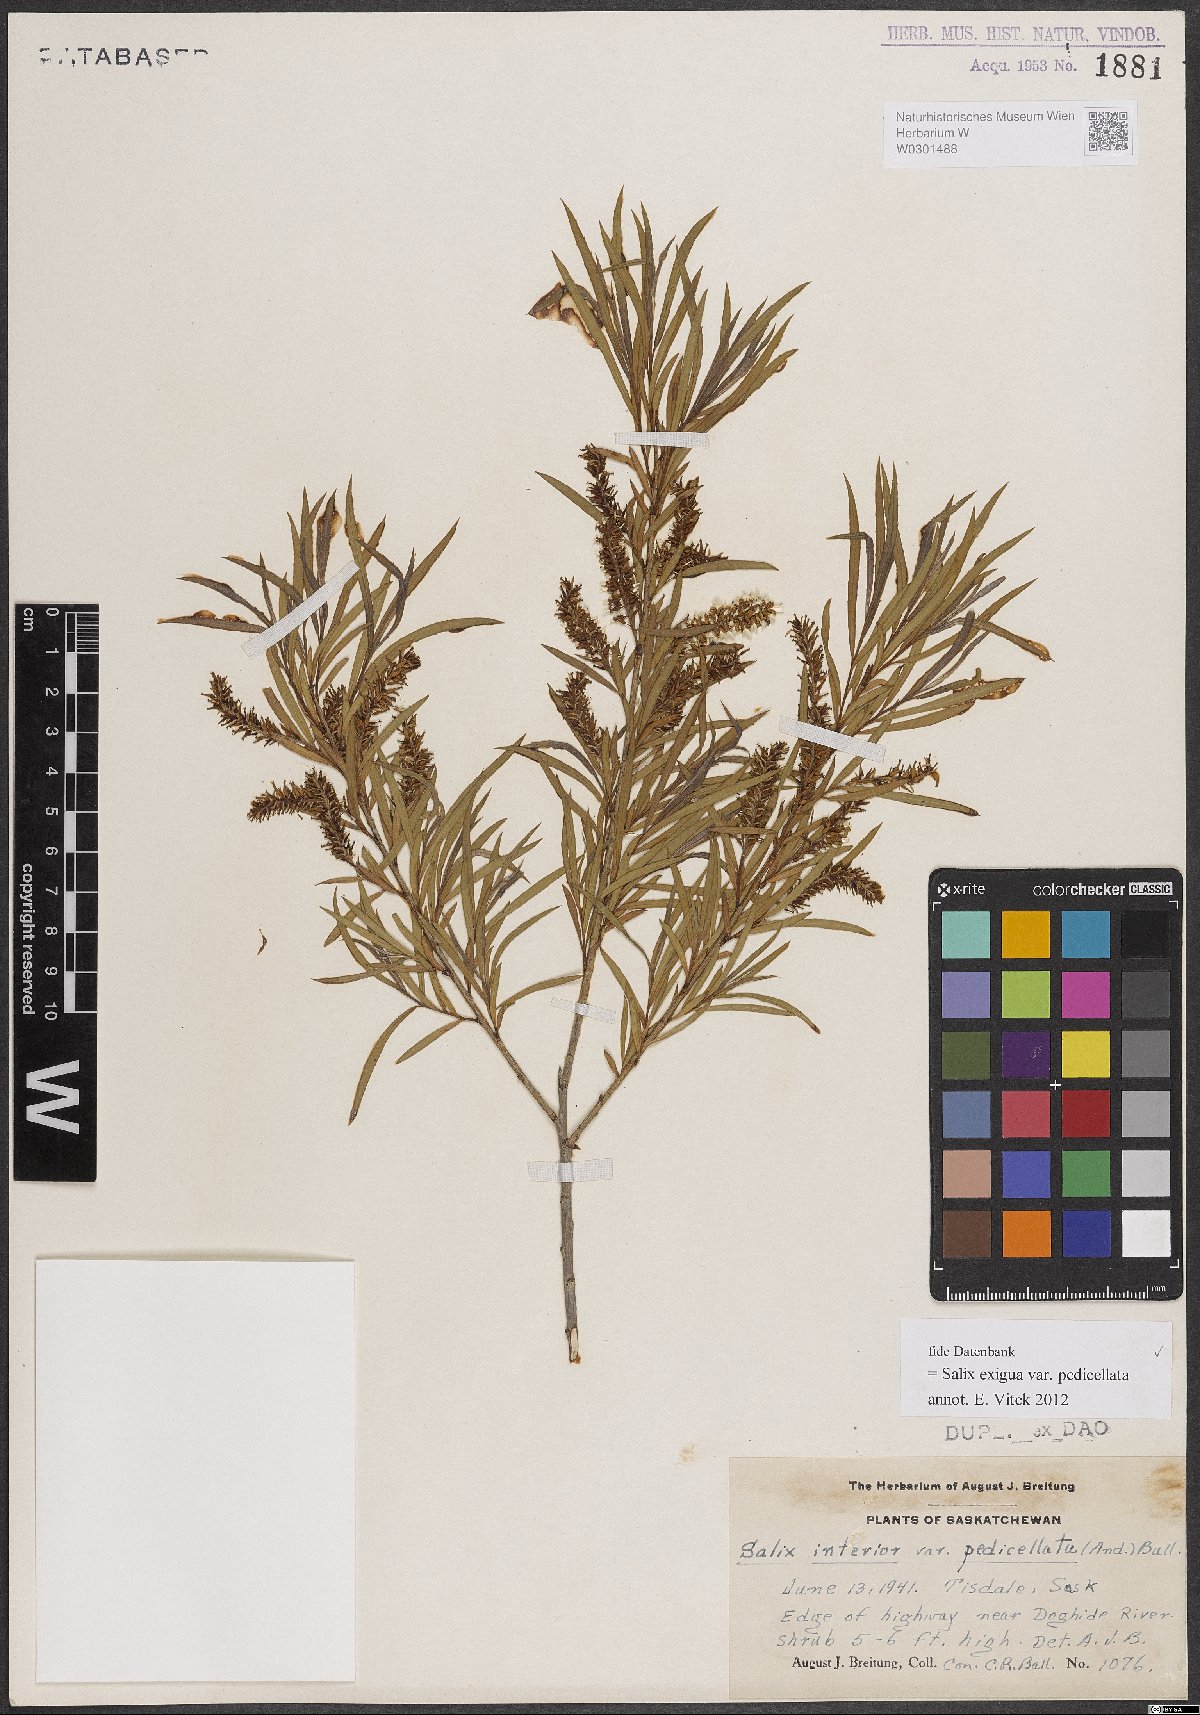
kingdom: Plantae
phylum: Tracheophyta
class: Magnoliopsida
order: Malpighiales
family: Salicaceae
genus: Salix
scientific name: Salix interior
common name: Sandbar willow
